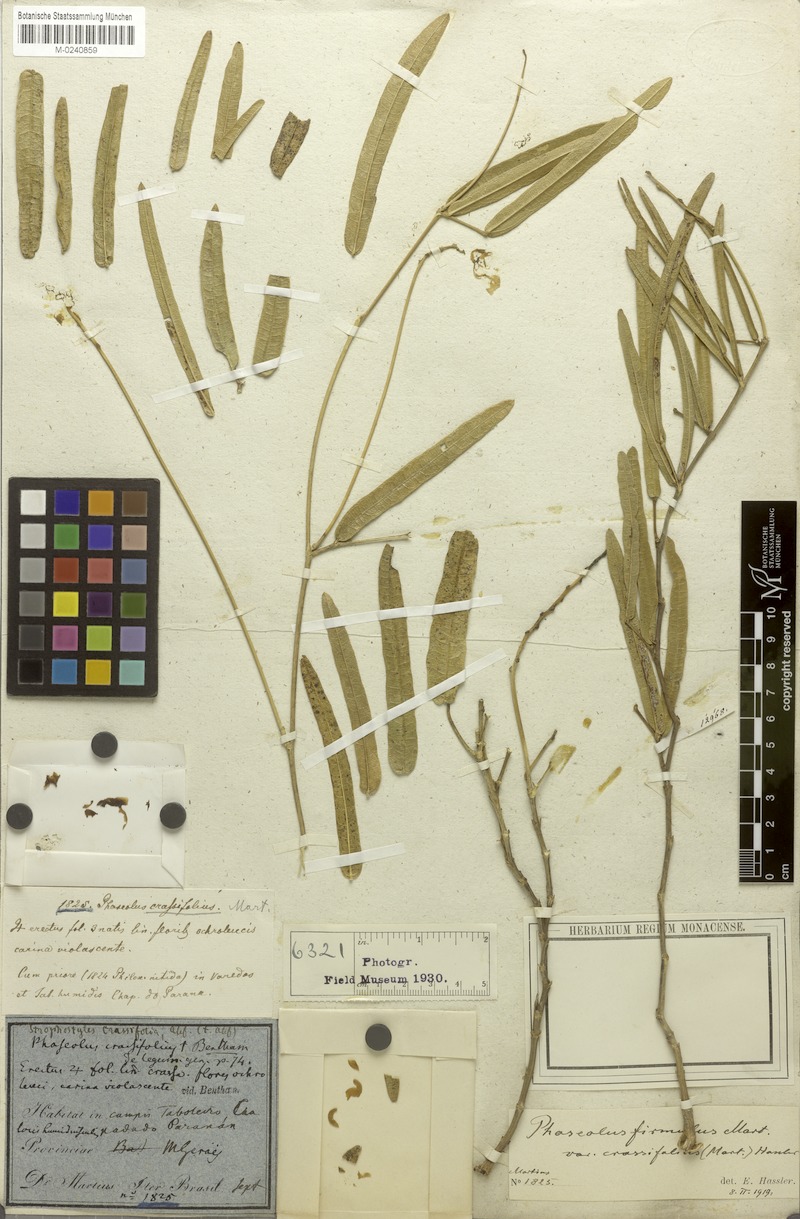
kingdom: Plantae
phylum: Tracheophyta
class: Magnoliopsida
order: Fabales
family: Fabaceae
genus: Ancistrotropis
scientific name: Ancistrotropis firmula
